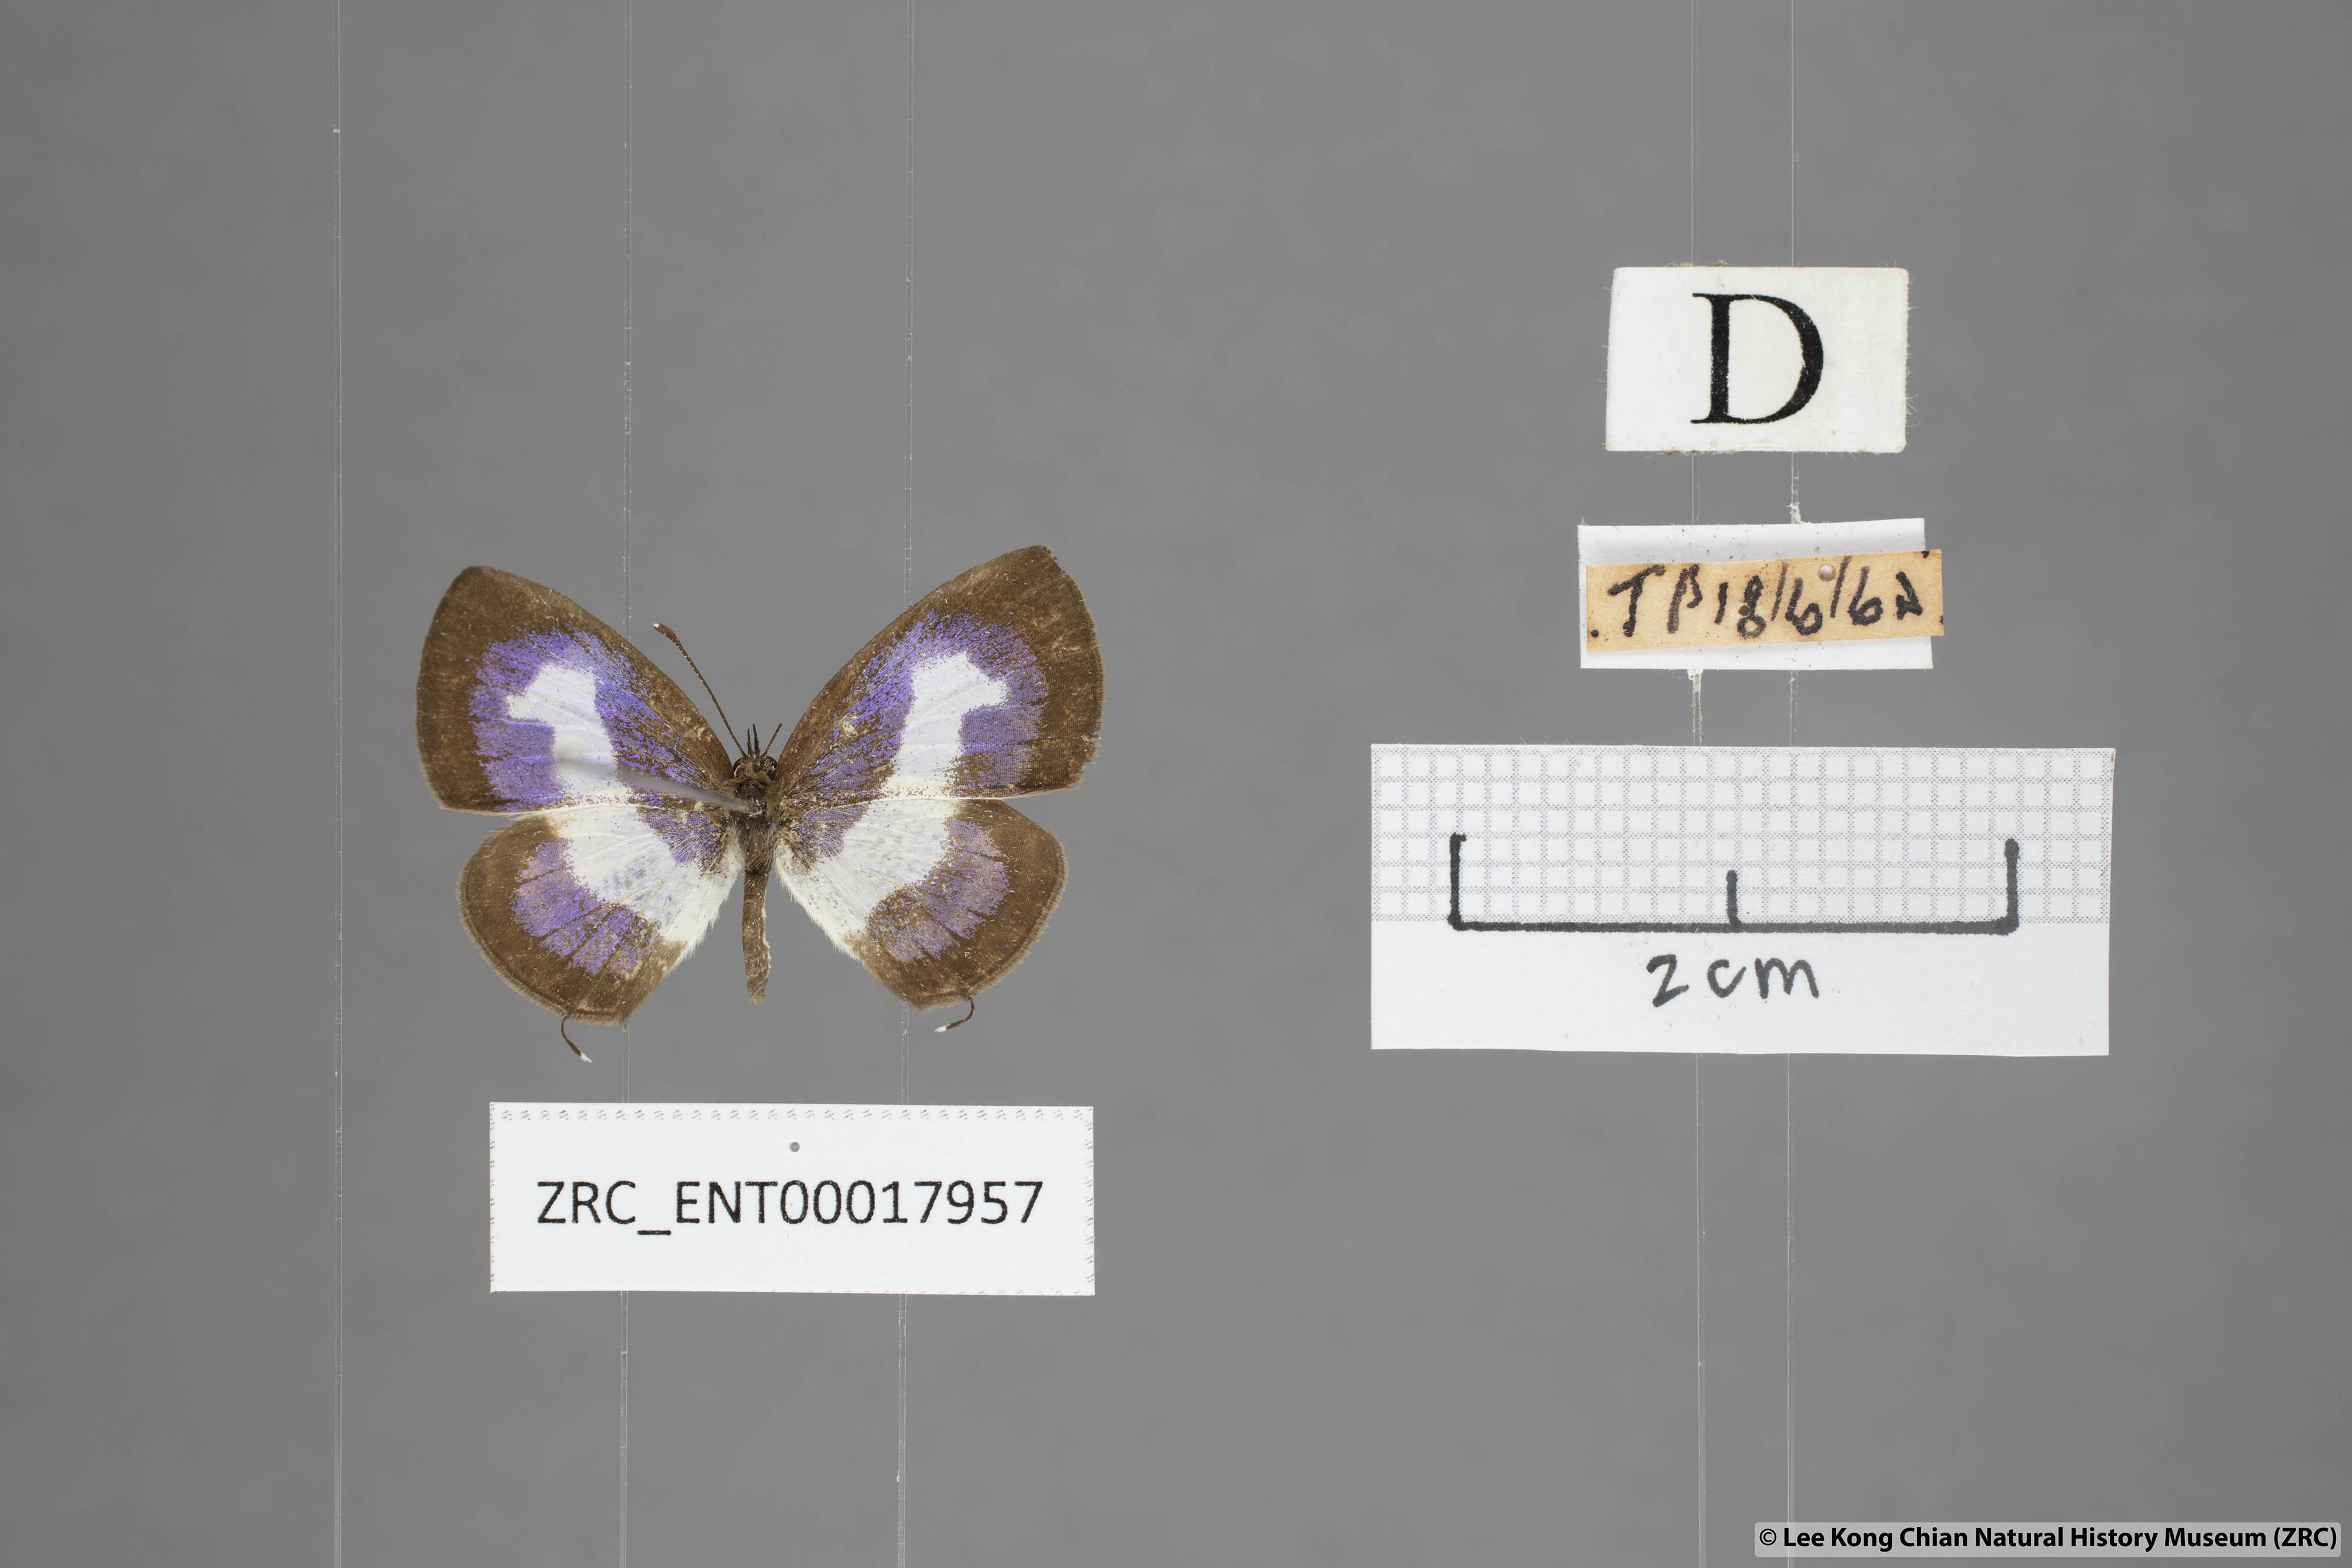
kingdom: Animalia
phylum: Arthropoda
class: Insecta
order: Lepidoptera
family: Lycaenidae
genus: Discolampa
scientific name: Discolampa ethion
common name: Banded blue pierrot
